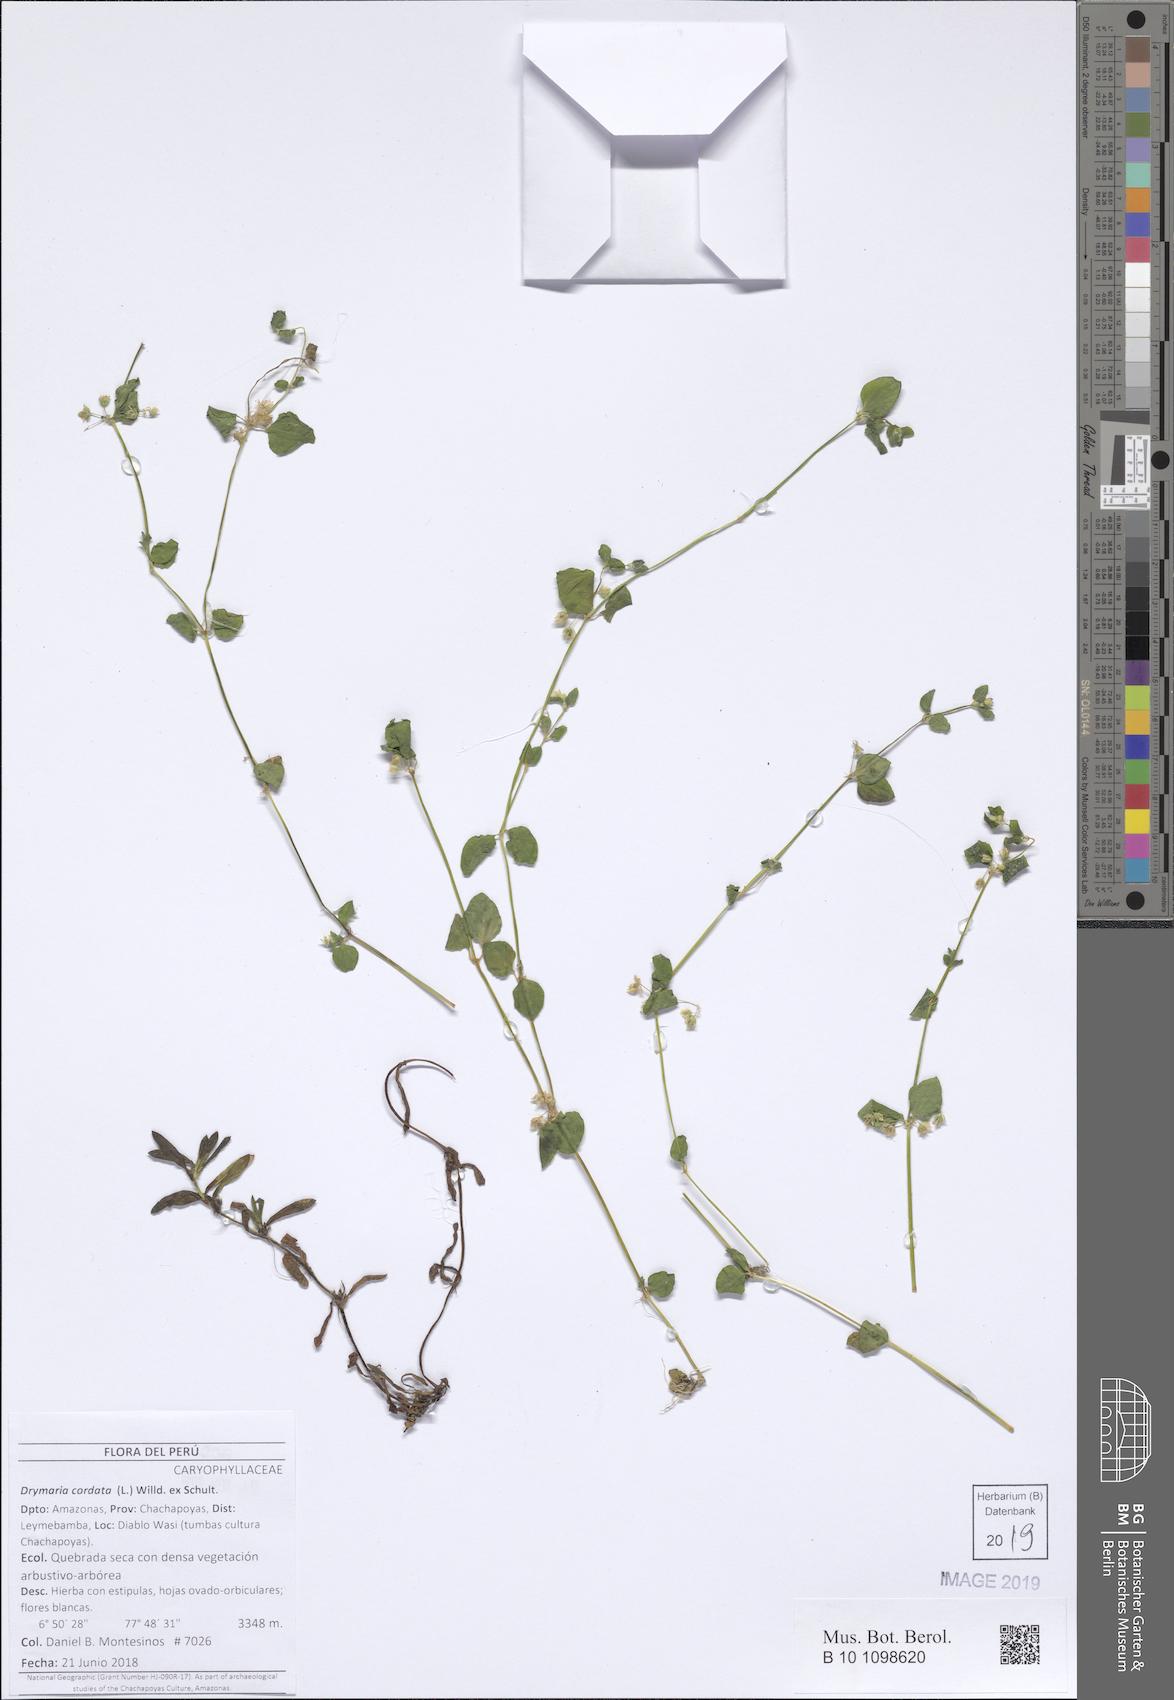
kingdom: Plantae
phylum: Tracheophyta
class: Magnoliopsida
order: Caryophyllales
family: Caryophyllaceae
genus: Drymaria
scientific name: Drymaria cordata
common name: Whitesnow
